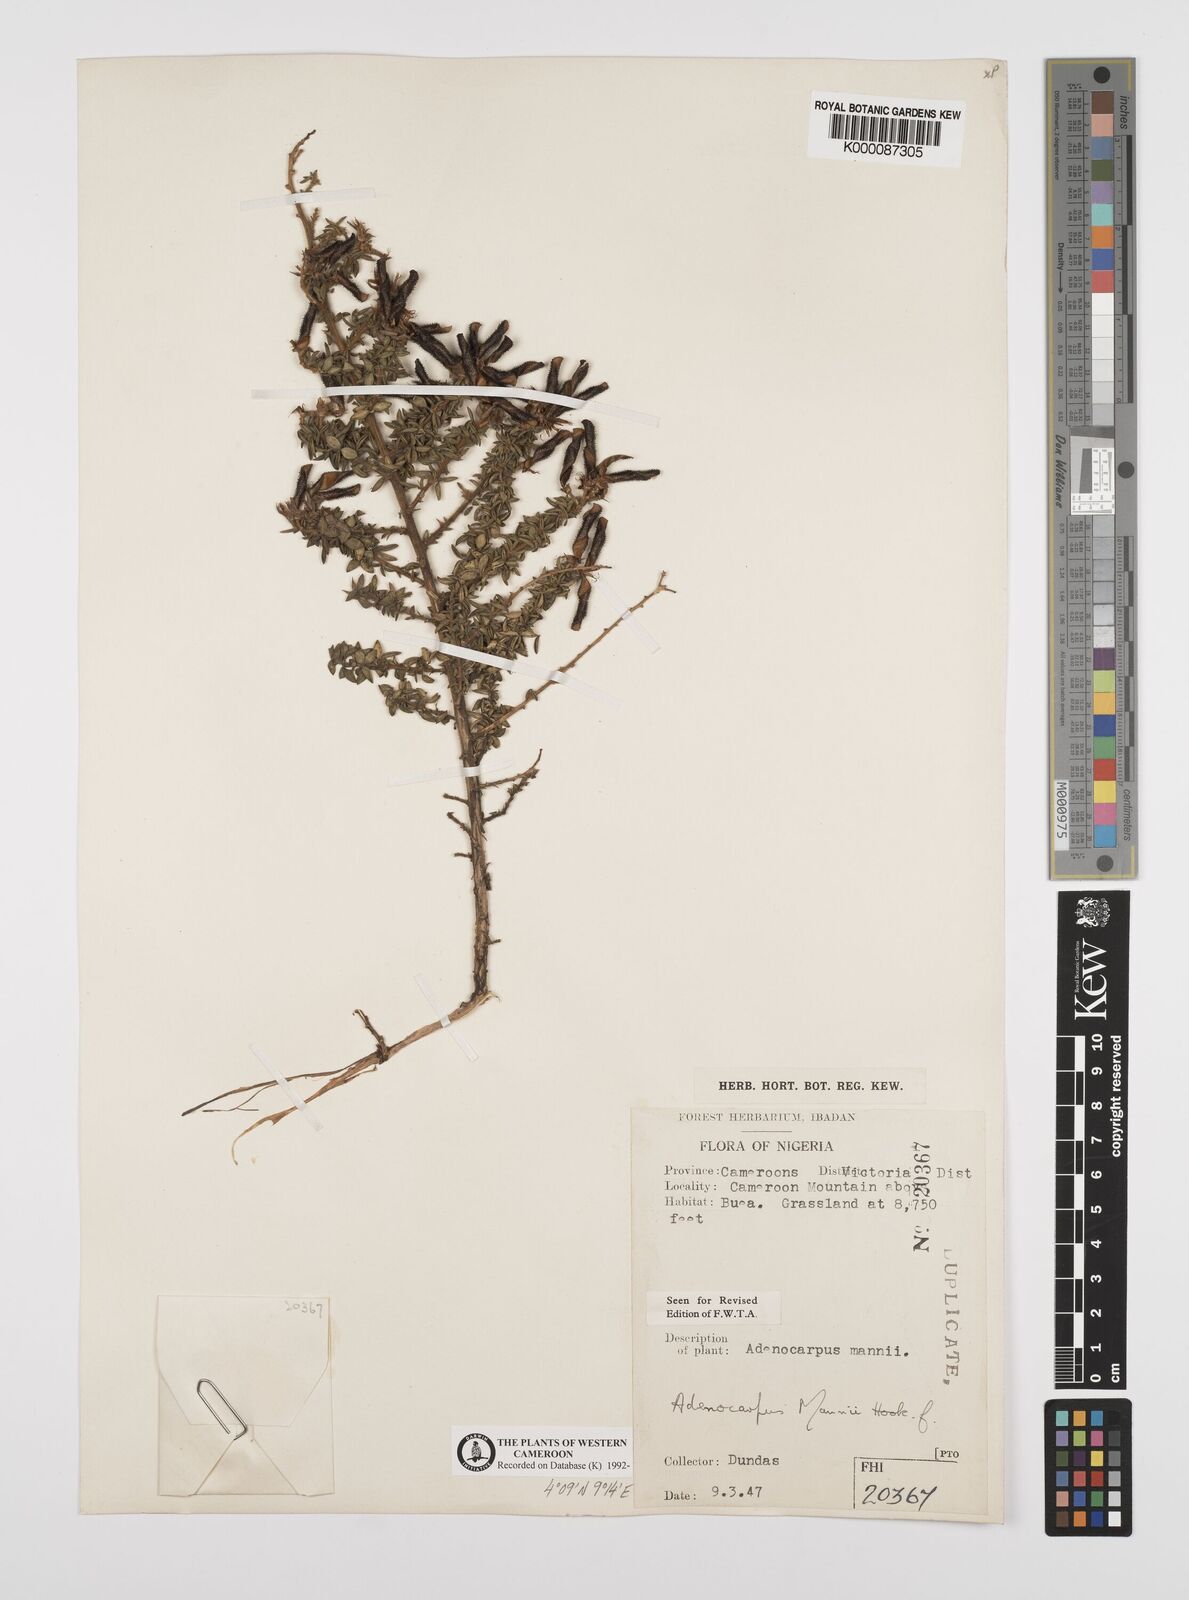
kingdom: Plantae
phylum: Tracheophyta
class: Magnoliopsida
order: Fabales
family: Fabaceae
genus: Adenocarpus
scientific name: Adenocarpus mannii
